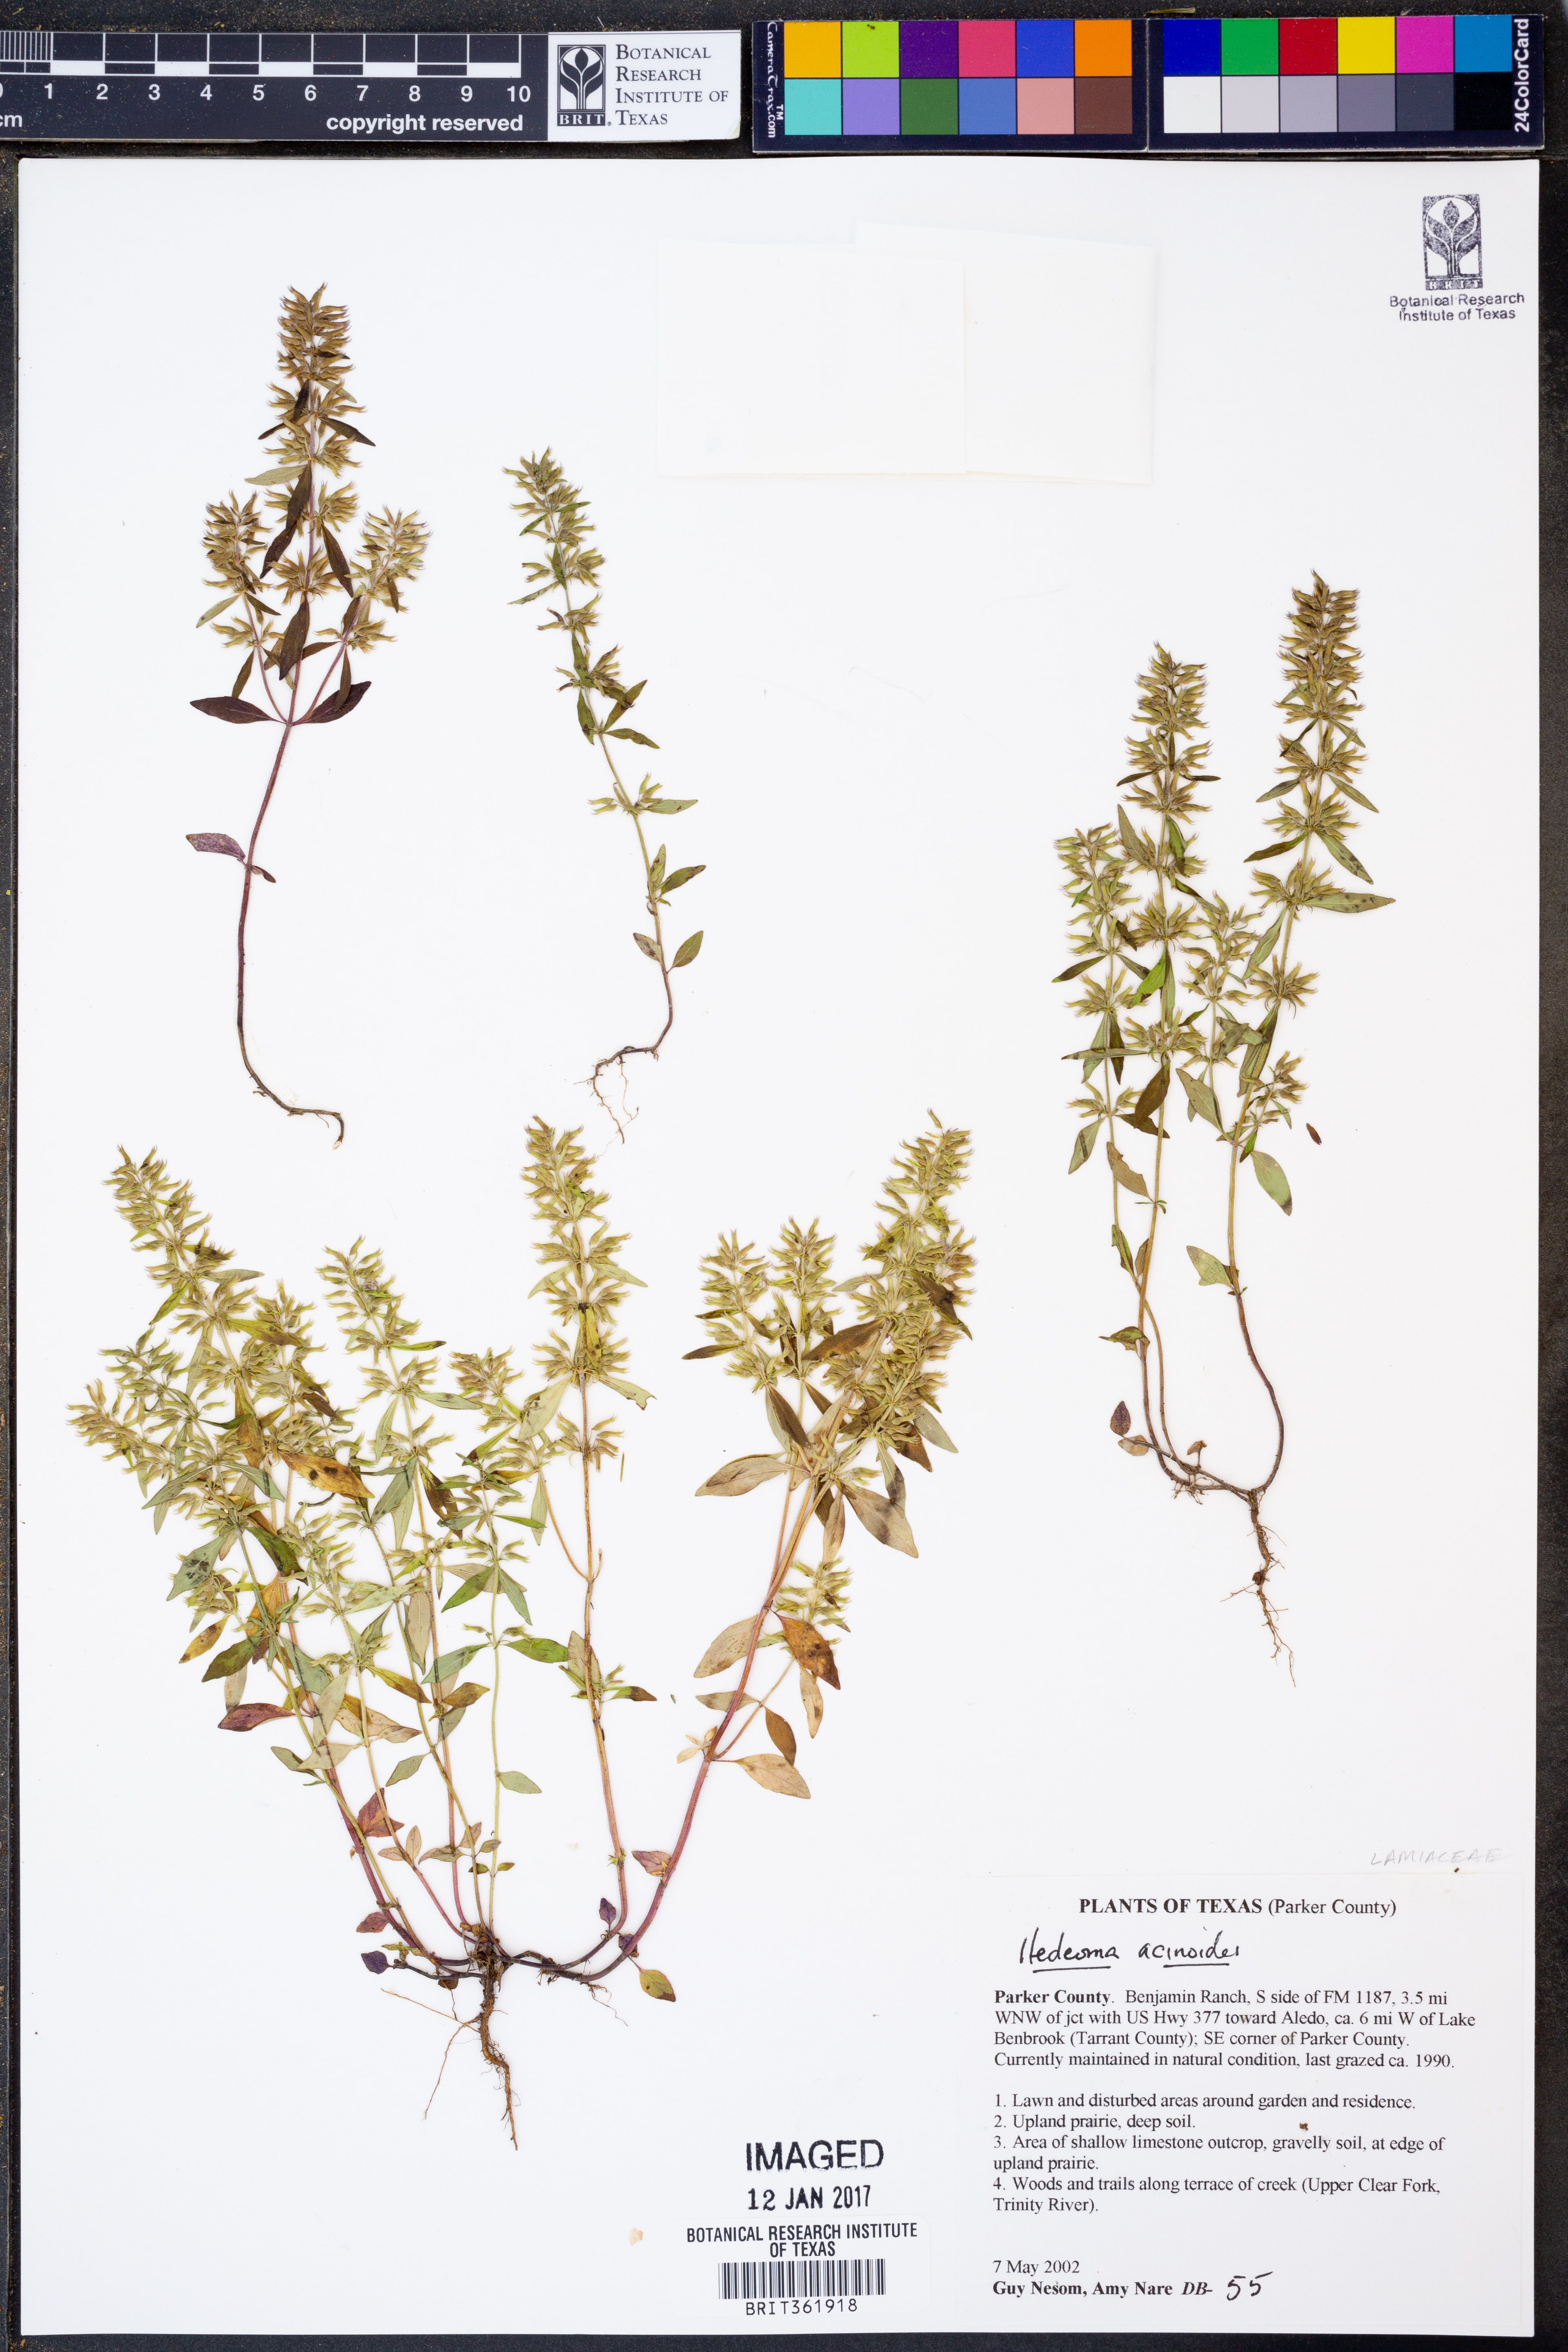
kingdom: Plantae
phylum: Tracheophyta
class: Magnoliopsida
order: Lamiales
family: Lamiaceae
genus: Hedeoma
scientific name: Hedeoma acinoides
